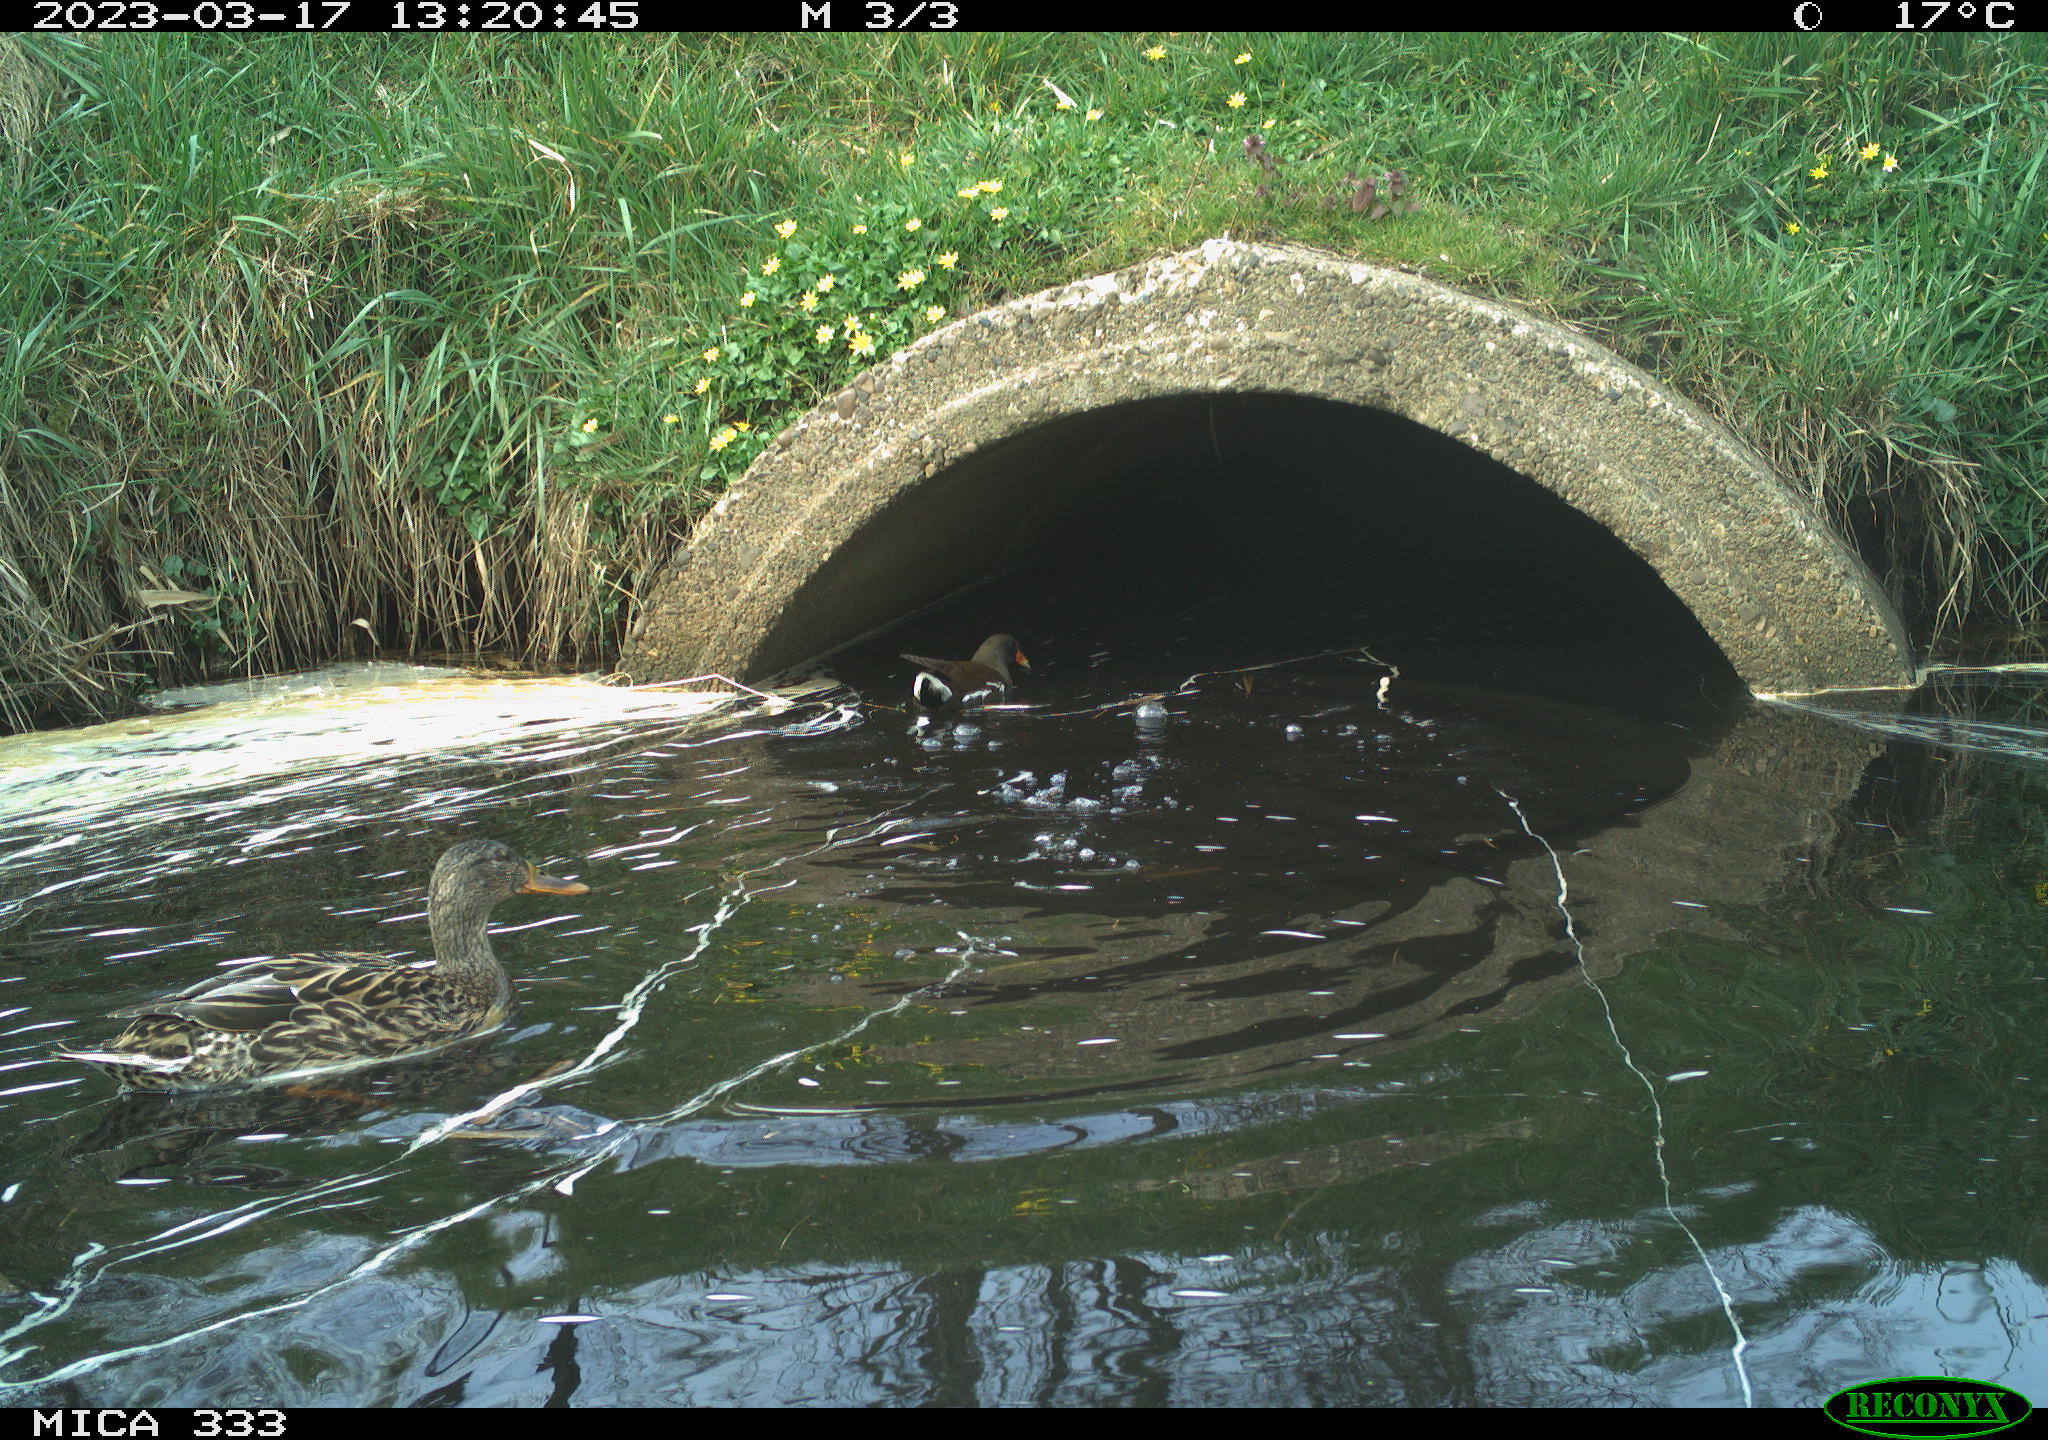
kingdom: Animalia
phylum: Chordata
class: Aves
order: Gruiformes
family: Rallidae
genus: Gallinula
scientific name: Gallinula chloropus
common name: Common moorhen
